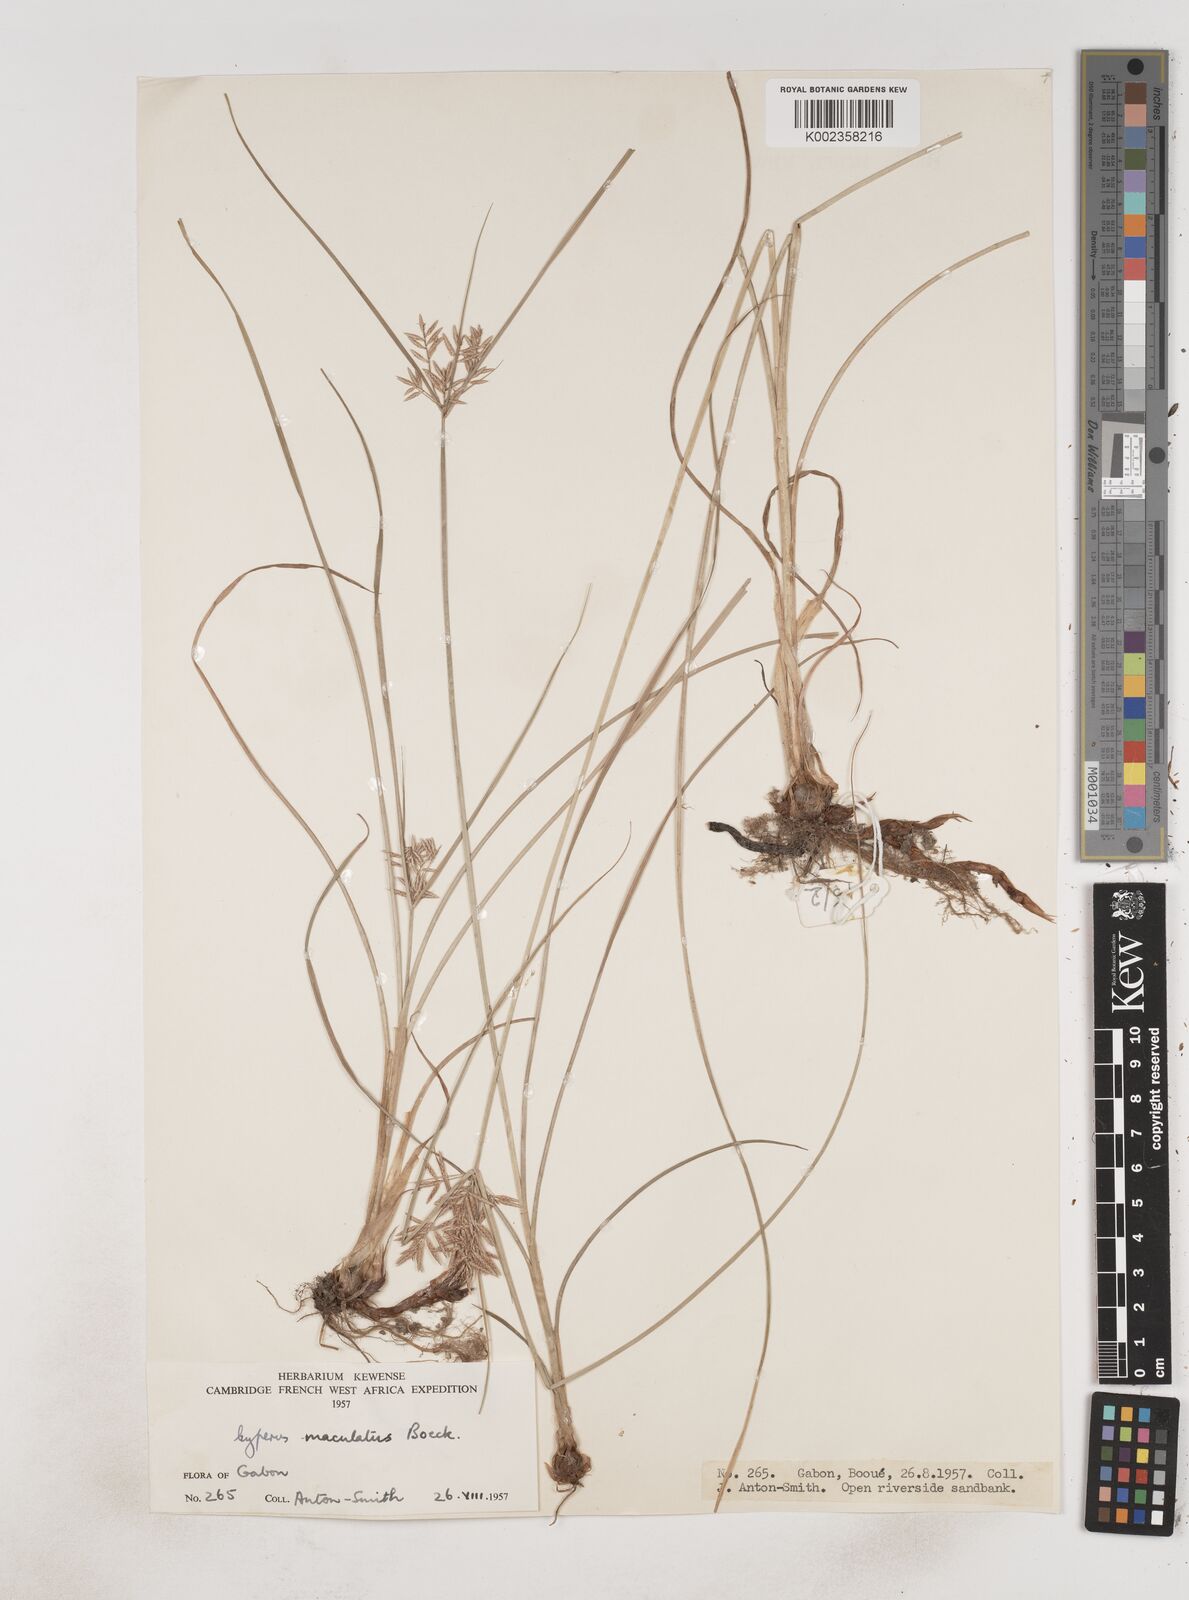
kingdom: Plantae
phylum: Tracheophyta
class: Liliopsida
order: Poales
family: Cyperaceae
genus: Cyperus
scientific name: Cyperus maculatus
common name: Maculated sedge
